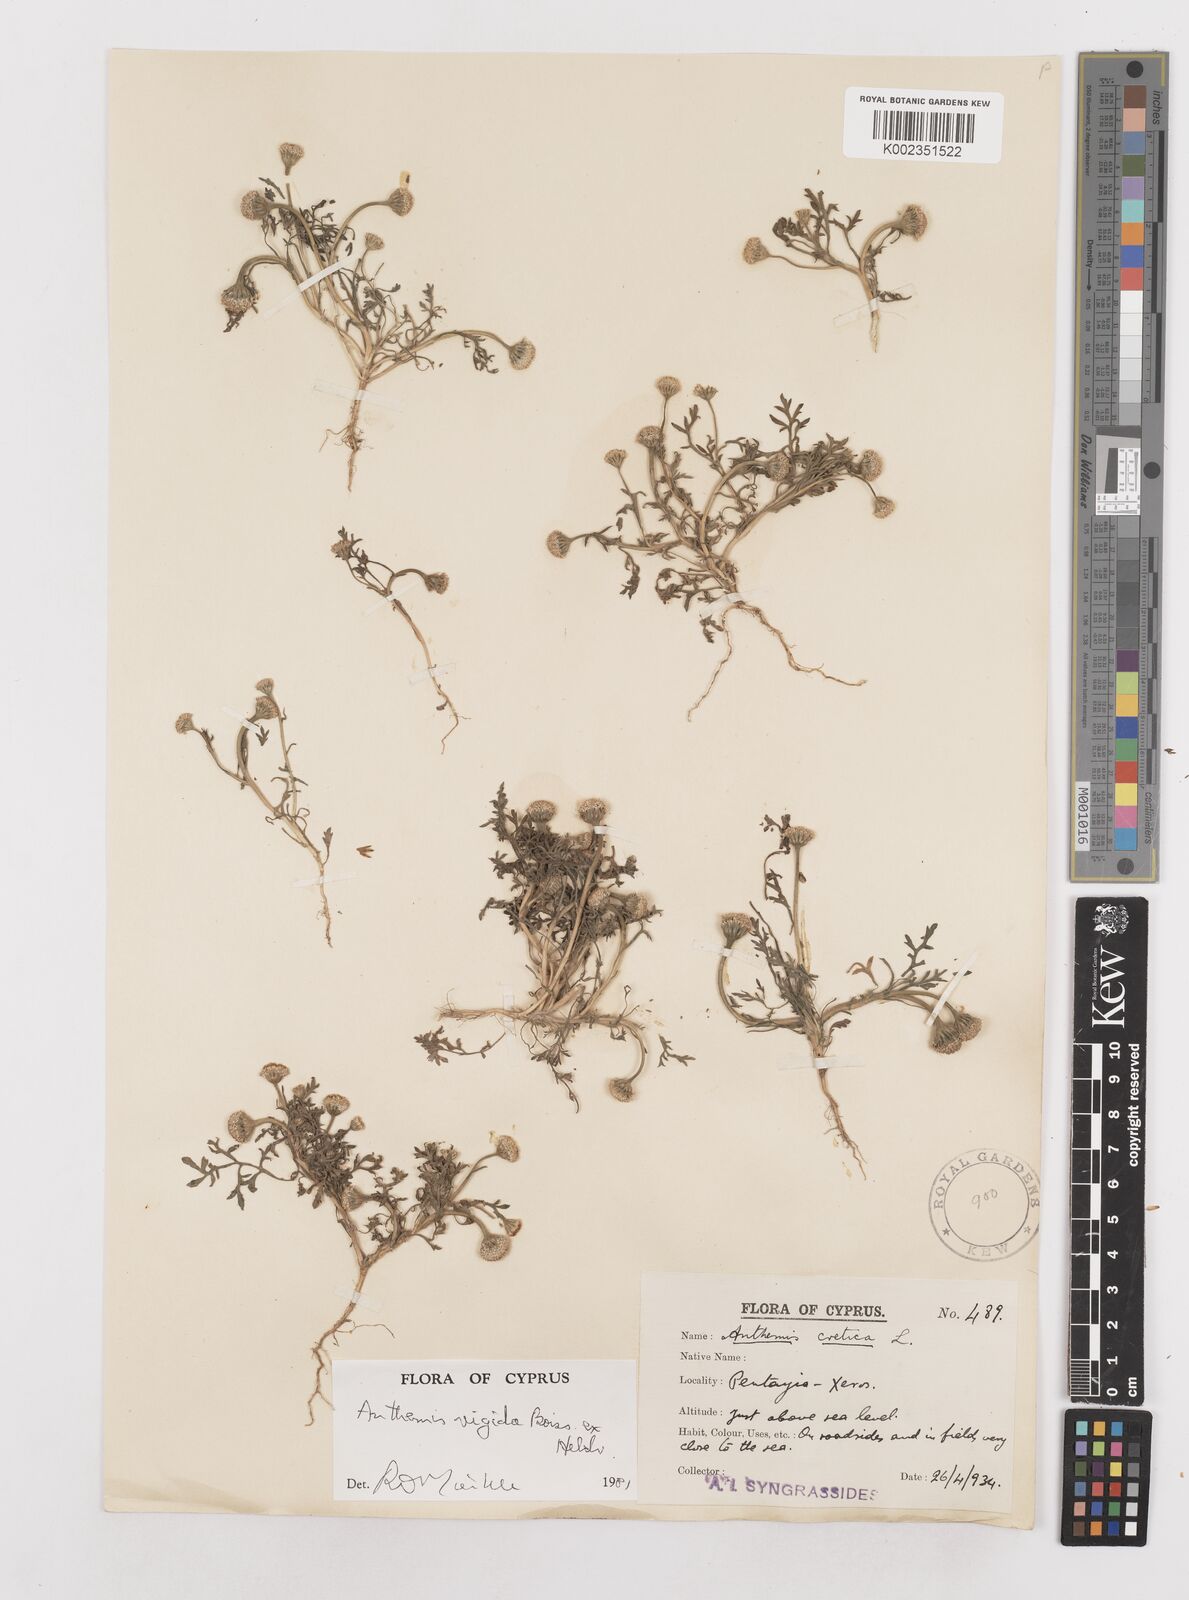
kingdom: Plantae
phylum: Tracheophyta
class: Magnoliopsida
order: Asterales
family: Asteraceae
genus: Anthemis
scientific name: Anthemis rigida
